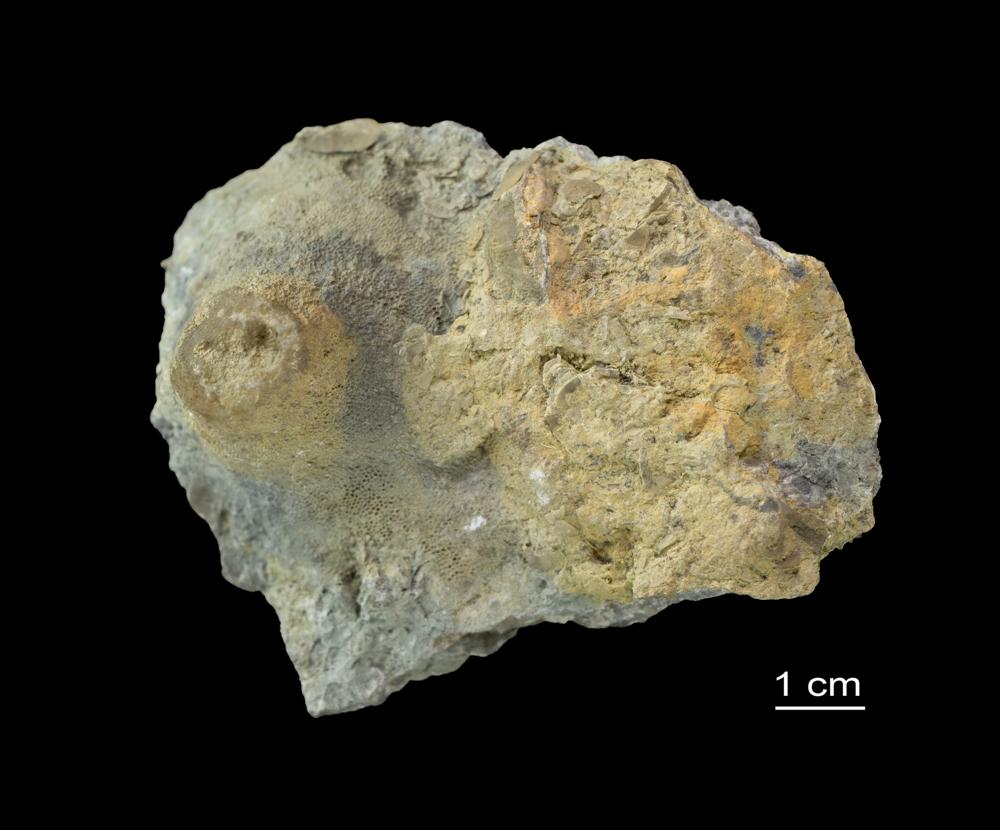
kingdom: Animalia
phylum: Bryozoa
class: Stenolaemata
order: Trepostomatida
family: Dianulitidae
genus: Dianulites
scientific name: Dianulites petropolitanus
